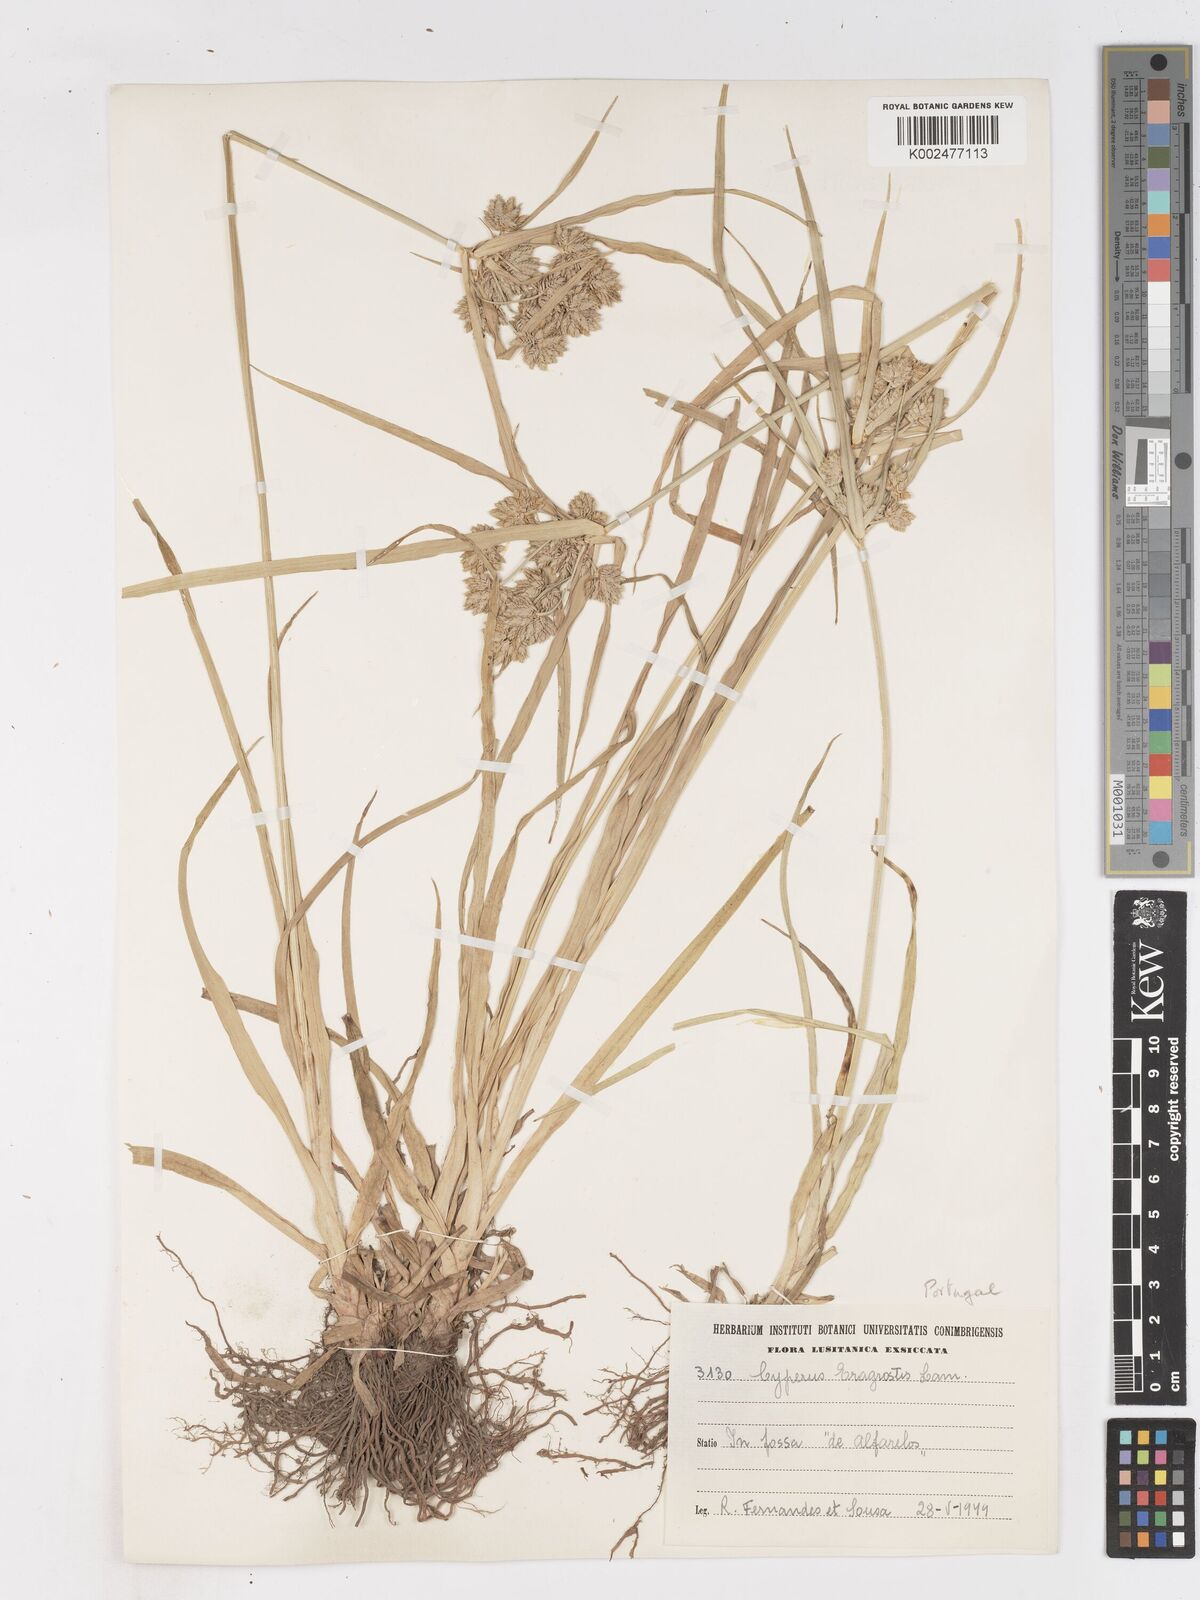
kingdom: Plantae
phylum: Tracheophyta
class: Liliopsida
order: Poales
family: Cyperaceae
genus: Cyperus
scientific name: Cyperus eragrostis
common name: Tall flatsedge
